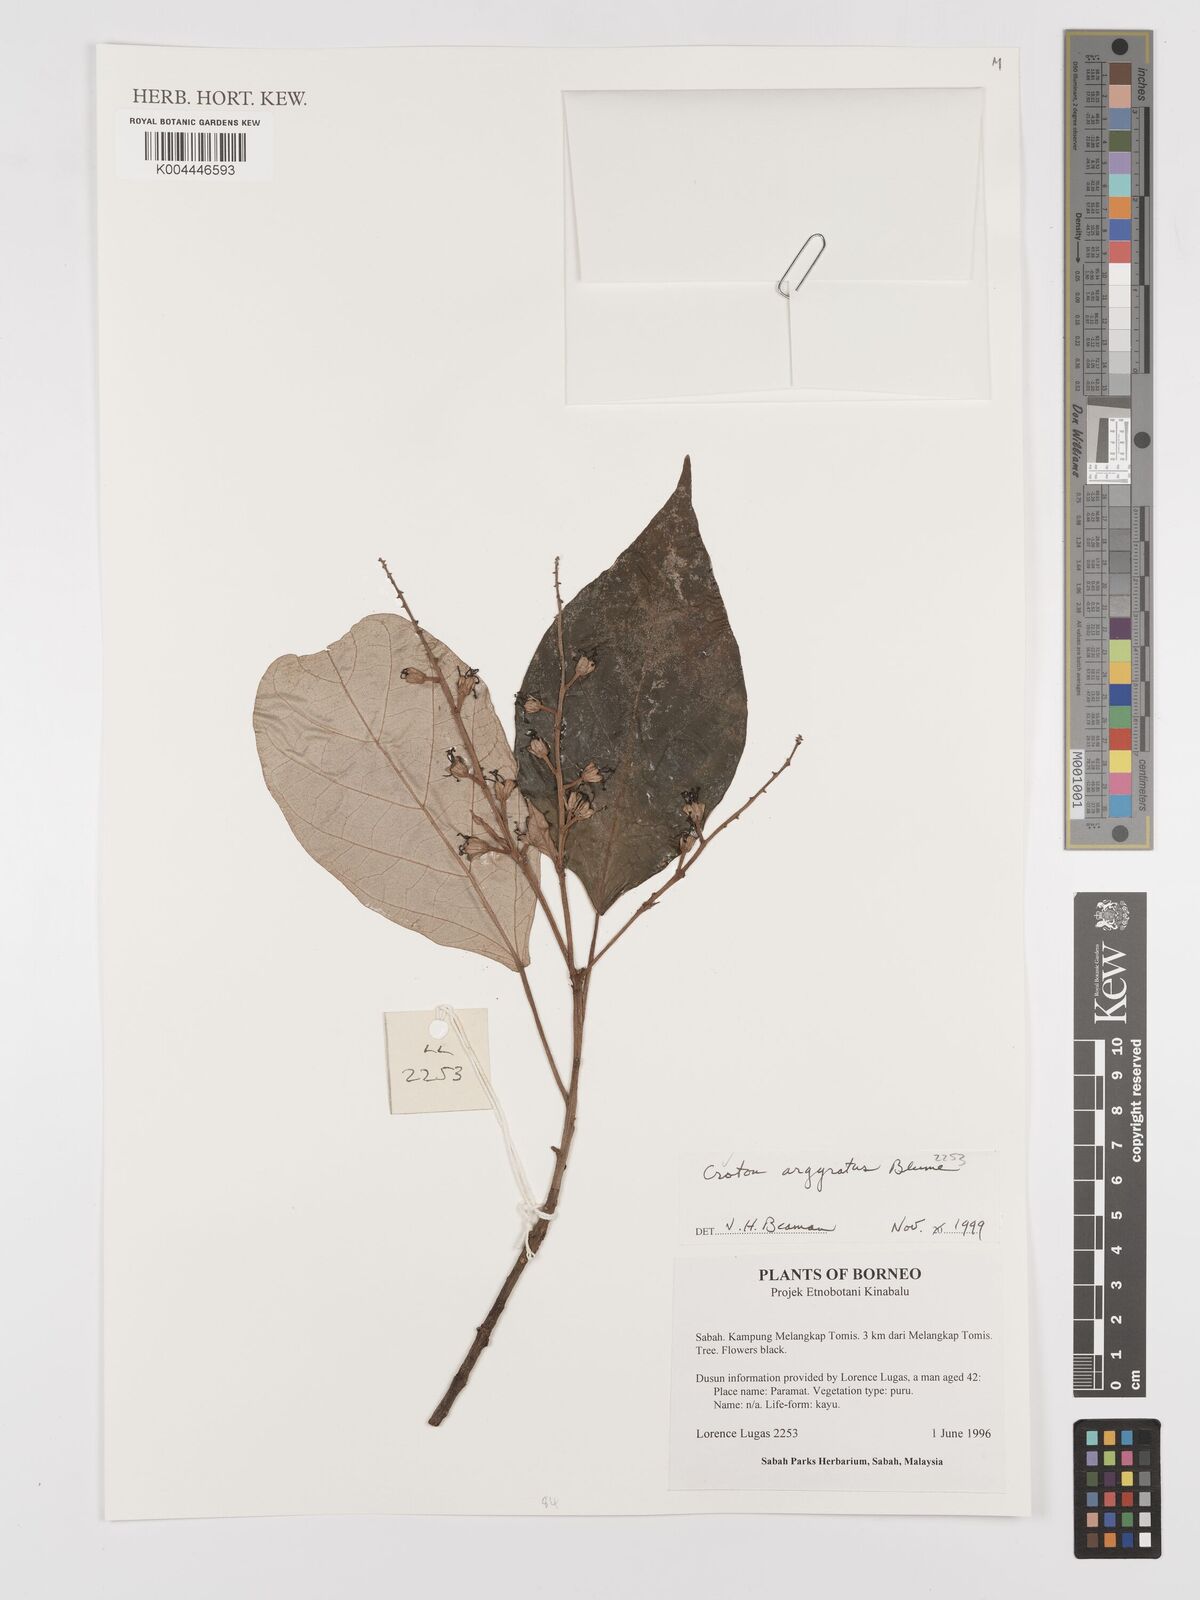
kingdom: Plantae
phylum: Tracheophyta
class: Magnoliopsida
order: Malpighiales
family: Euphorbiaceae
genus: Croton
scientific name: Croton argyratus
